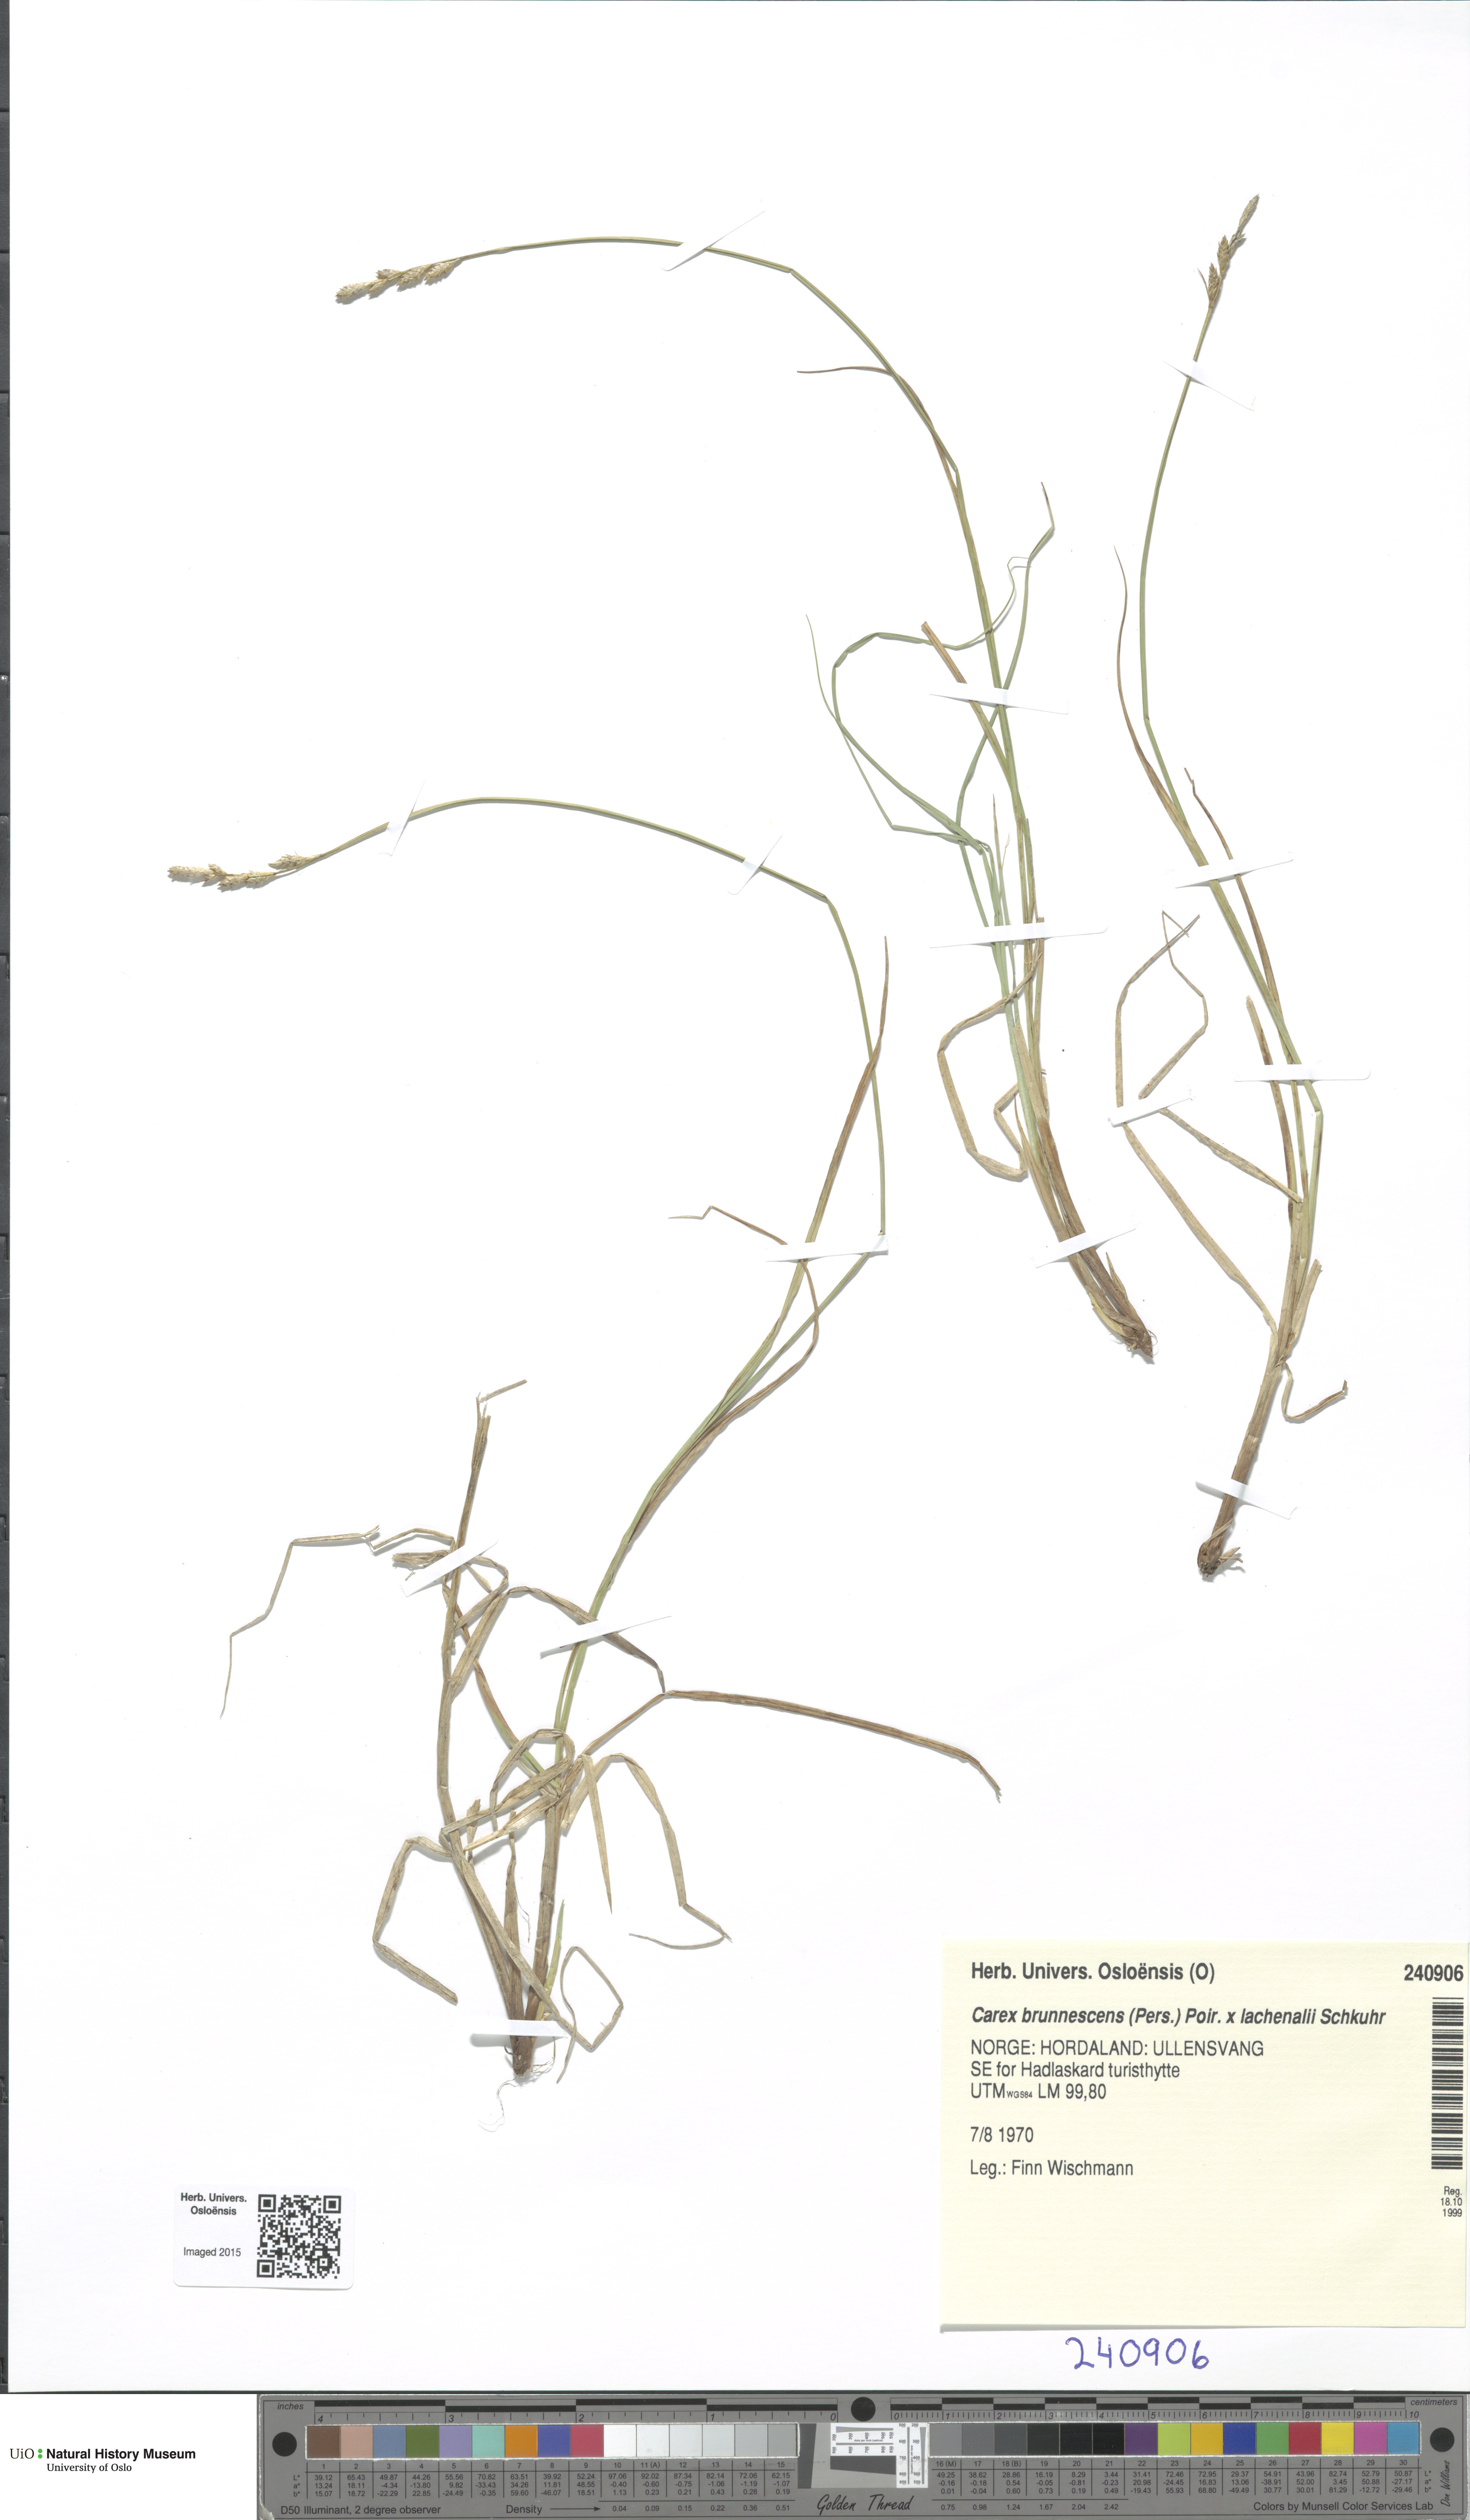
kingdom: Plantae
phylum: Tracheophyta
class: Liliopsida
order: Poales
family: Cyperaceae
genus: Carex
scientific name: Carex
